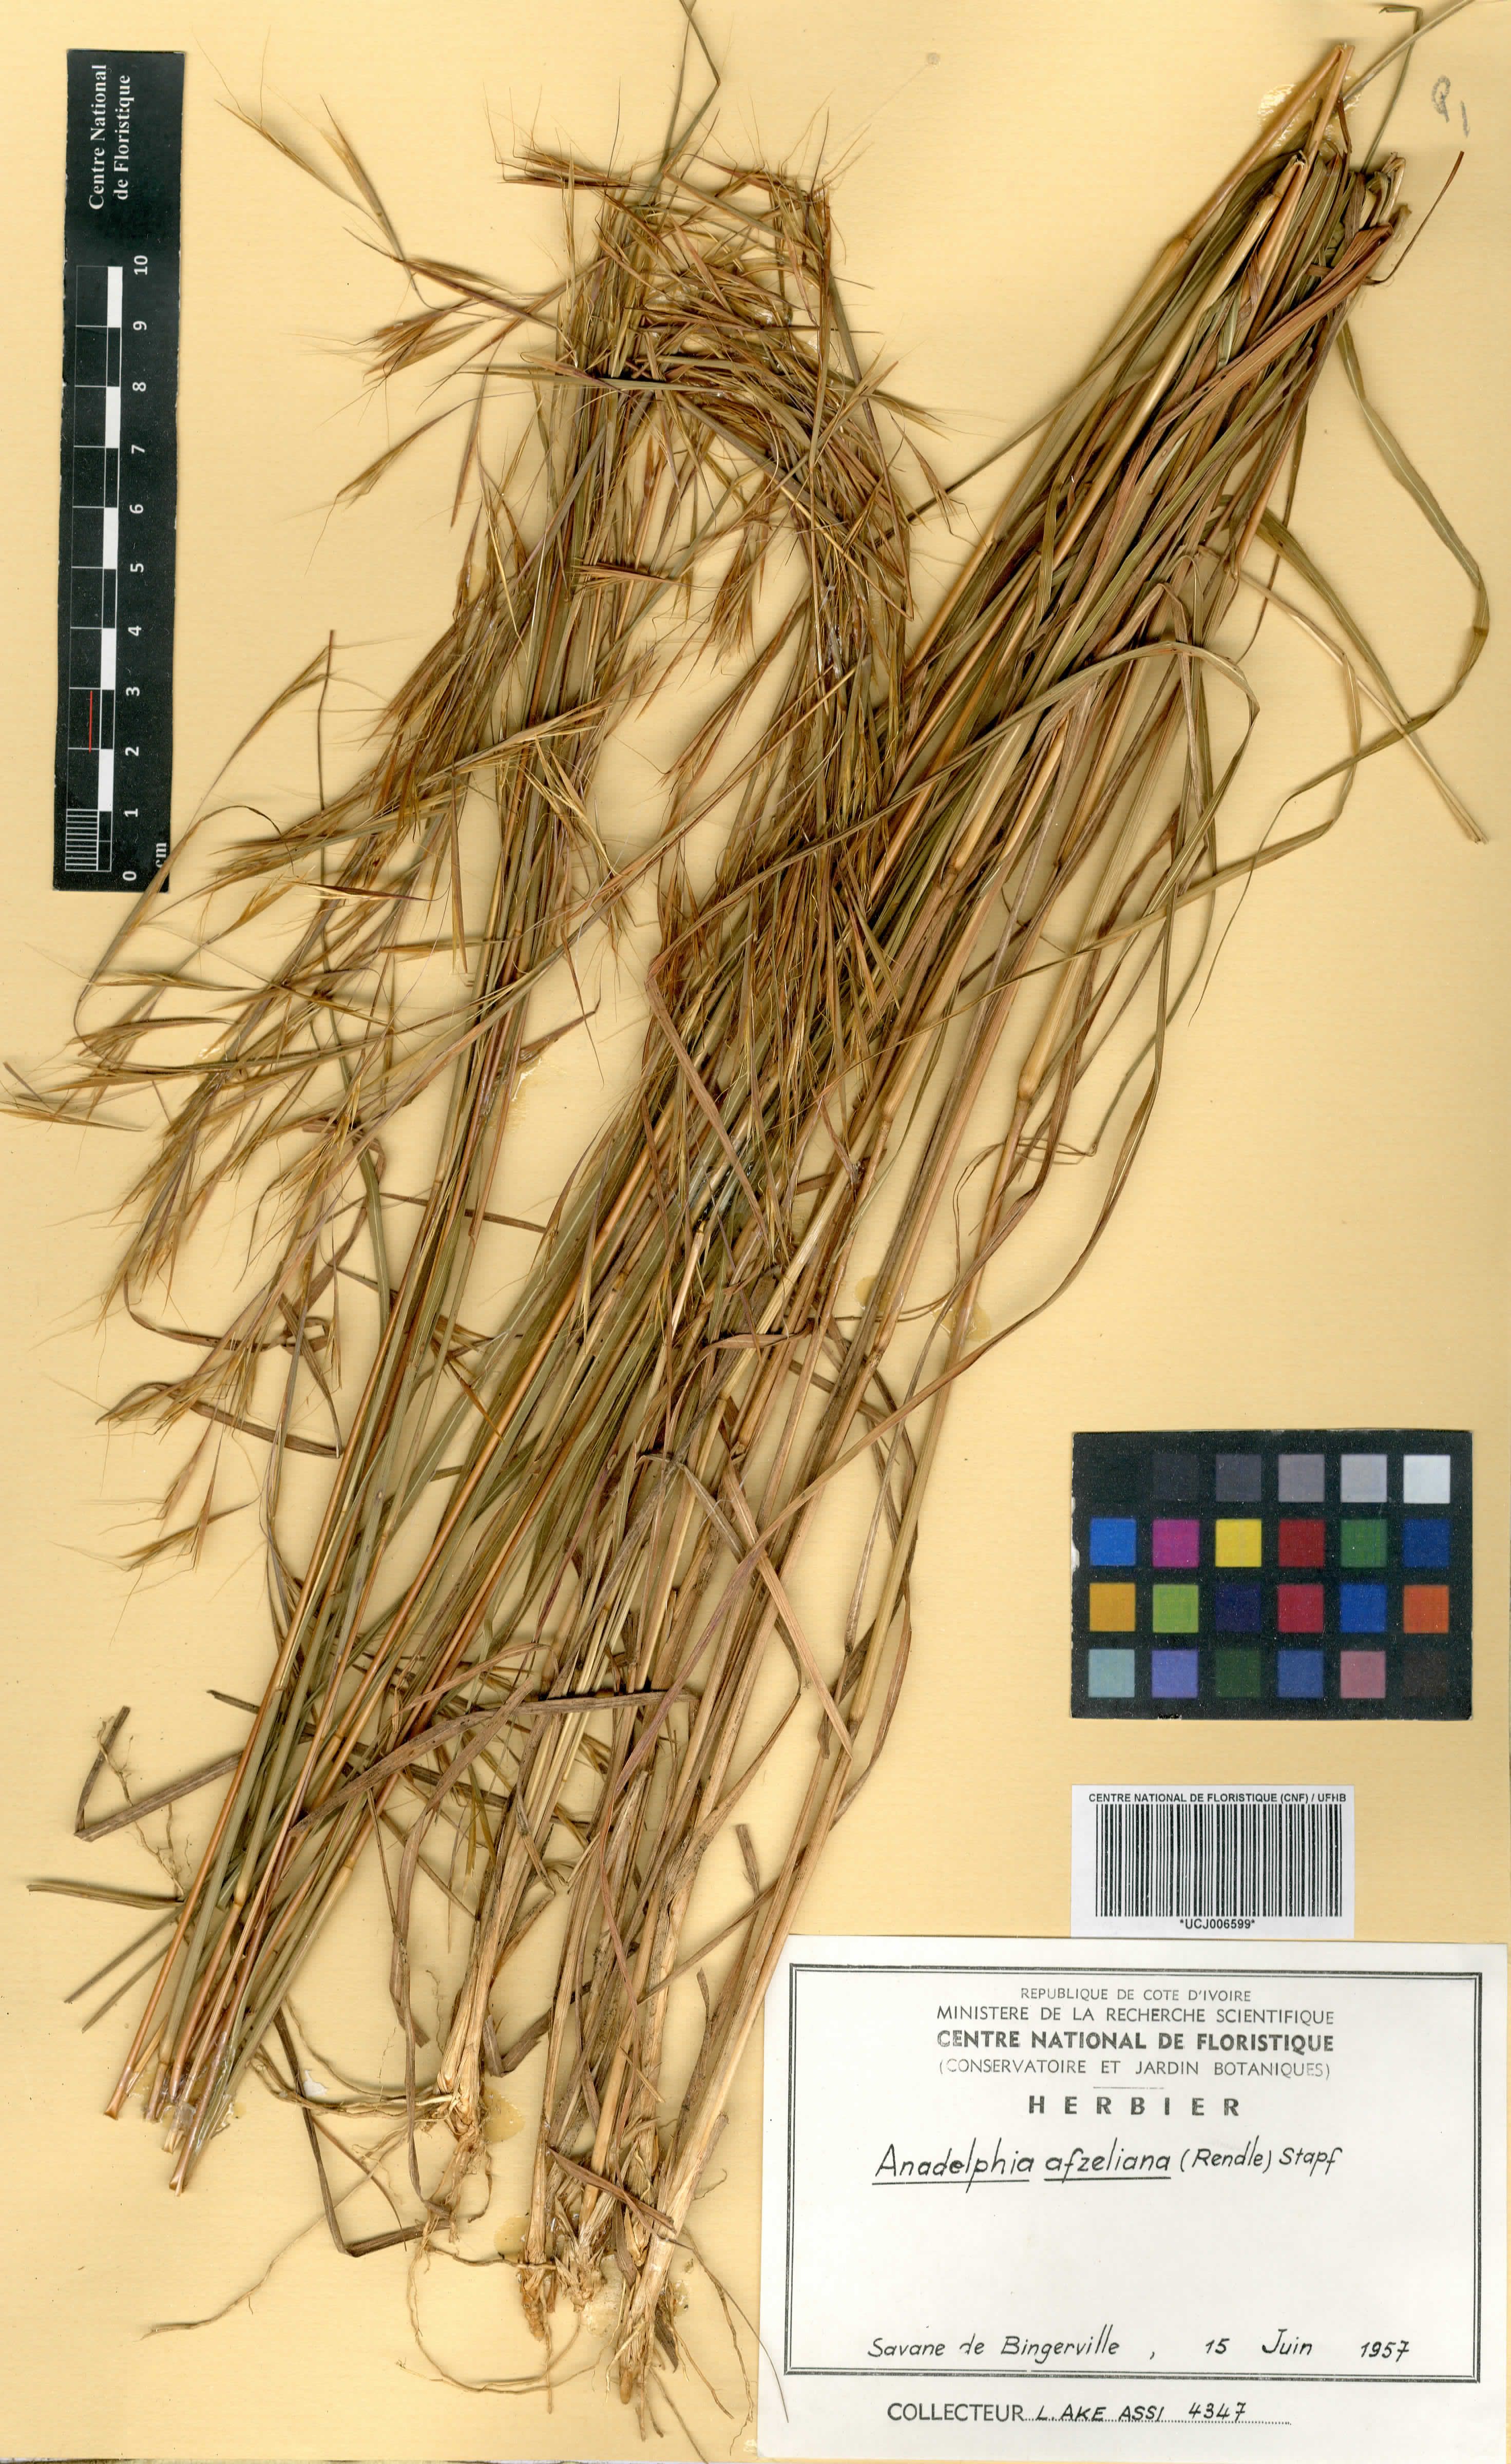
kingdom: Plantae
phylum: Tracheophyta
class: Liliopsida
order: Poales
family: Poaceae
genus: Anadelphia
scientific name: Anadelphia afzeliana
